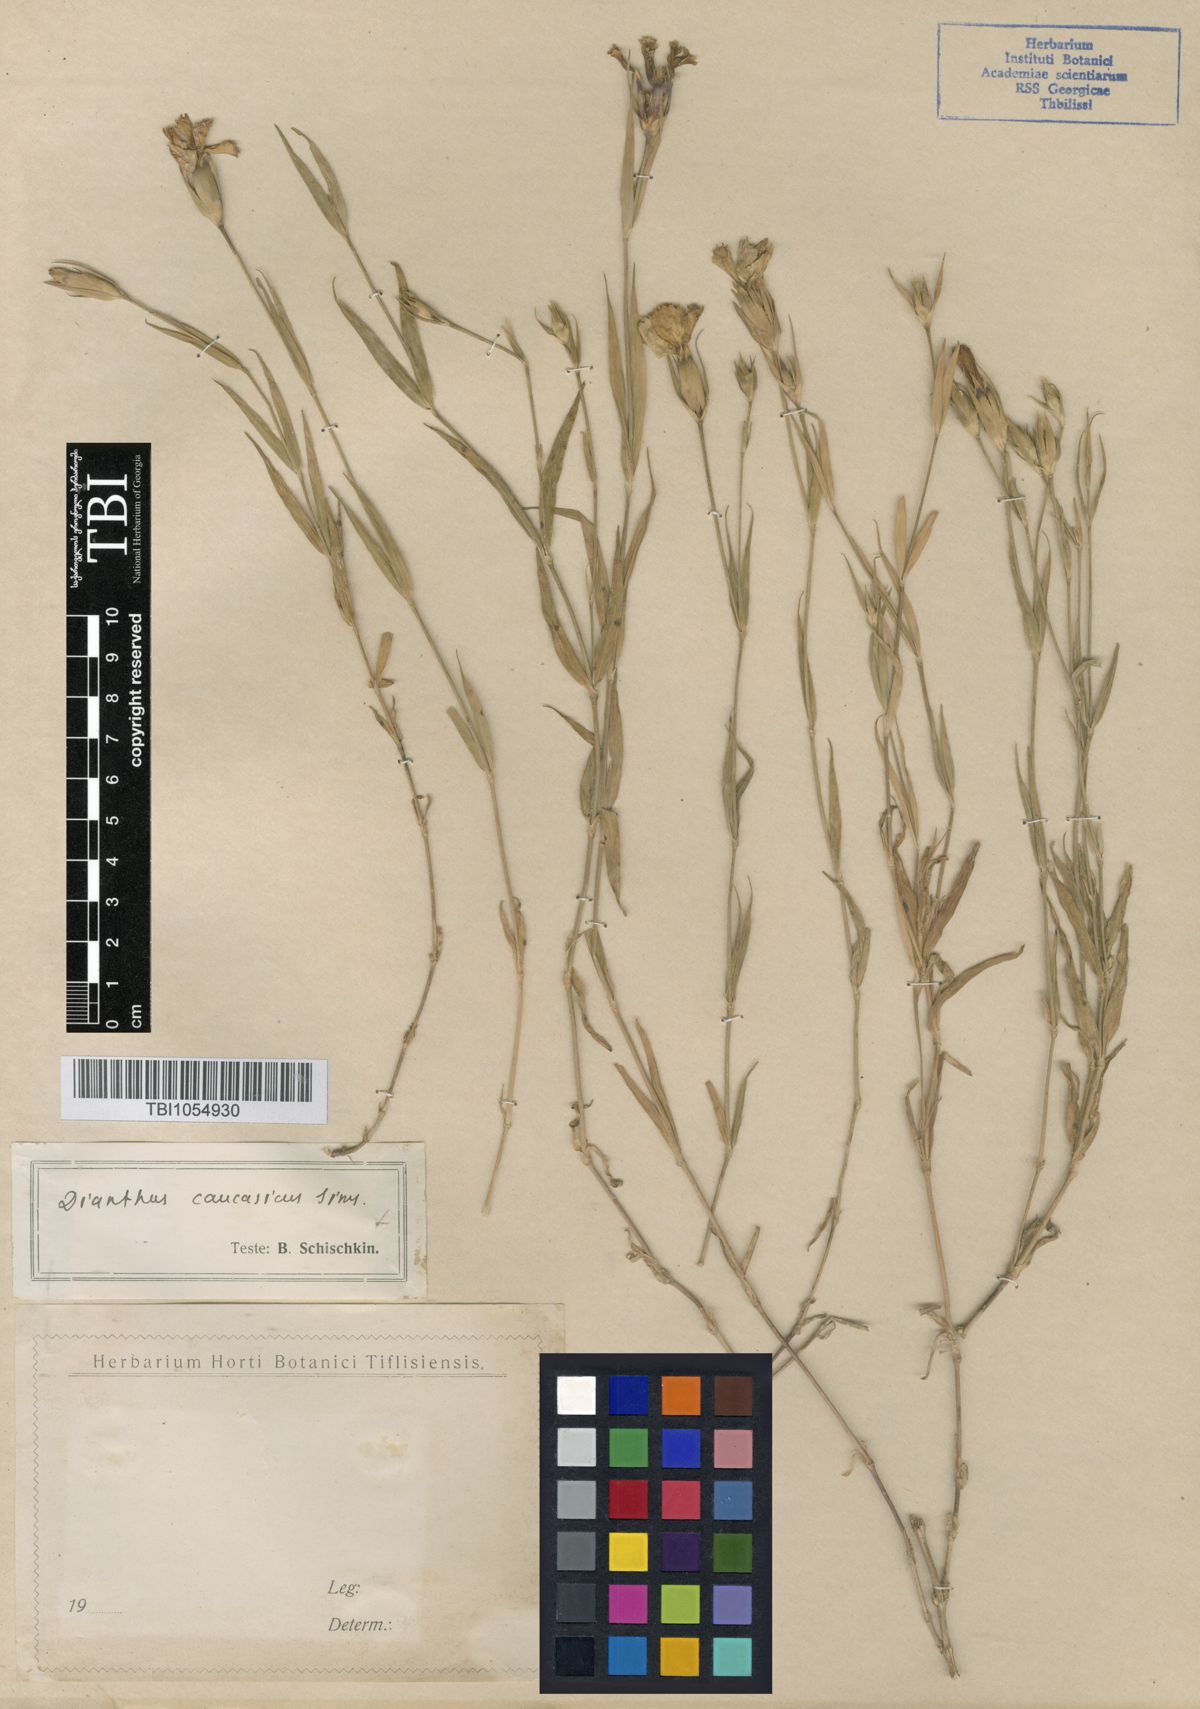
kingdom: Plantae
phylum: Tracheophyta
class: Magnoliopsida
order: Caryophyllales
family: Caryophyllaceae
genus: Dianthus
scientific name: Dianthus caucaseus
